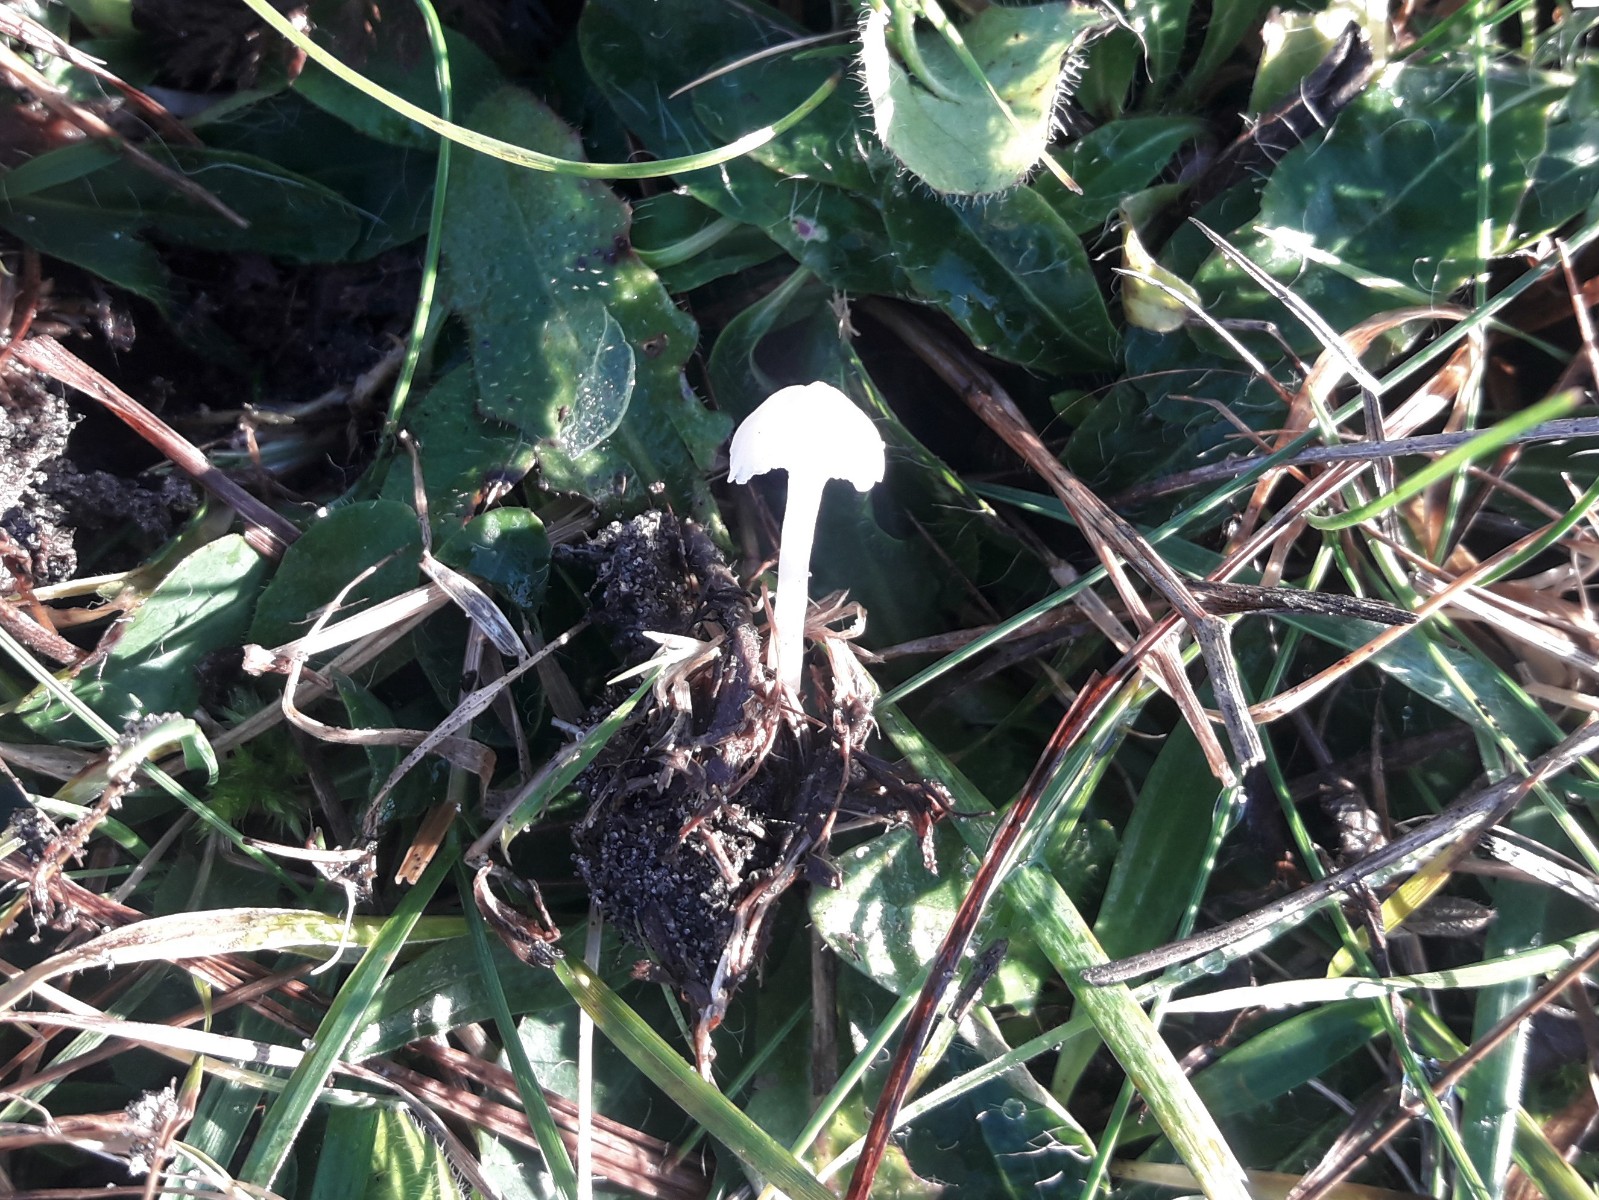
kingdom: Fungi
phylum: Basidiomycota
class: Agaricomycetes
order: Agaricales
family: Hygrophoraceae
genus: Cuphophyllus
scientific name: Cuphophyllus russocoriaceus
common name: ruslæder-vokshat
